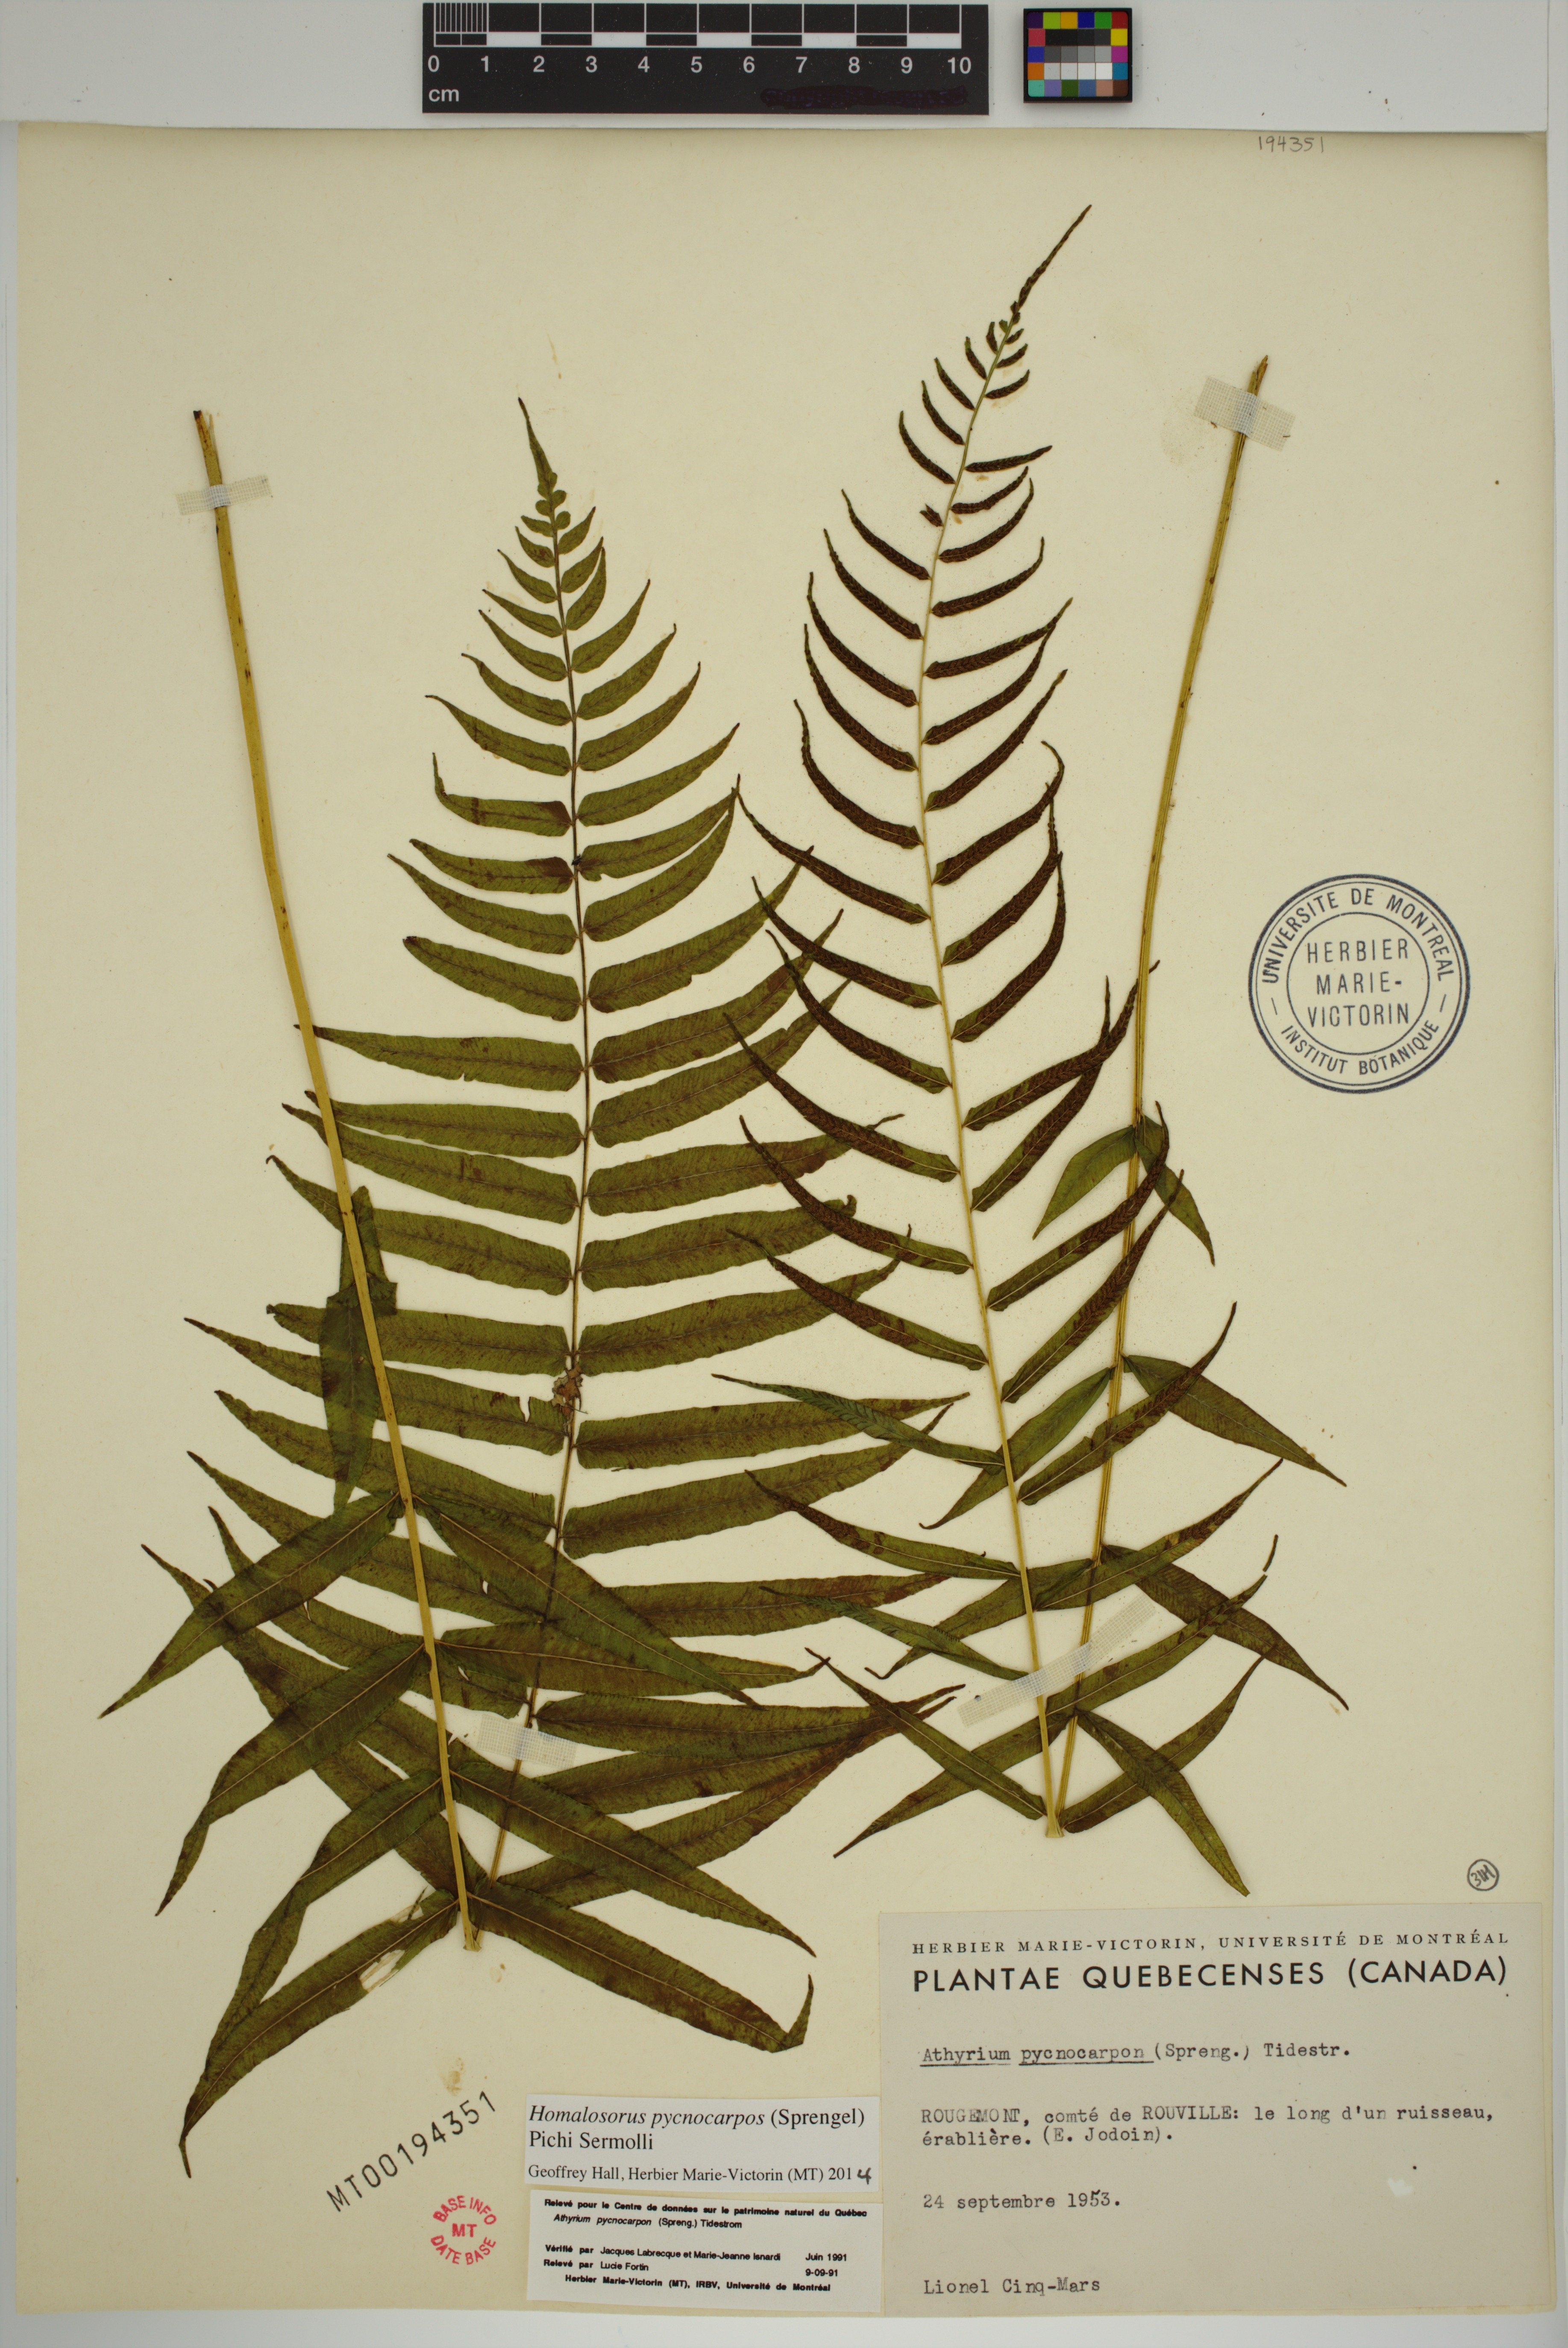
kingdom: Plantae
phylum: Tracheophyta
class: Polypodiopsida
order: Polypodiales
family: Diplaziopsidaceae
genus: Homalosorus
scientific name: Homalosorus pycnocarpos
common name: Glade fern
